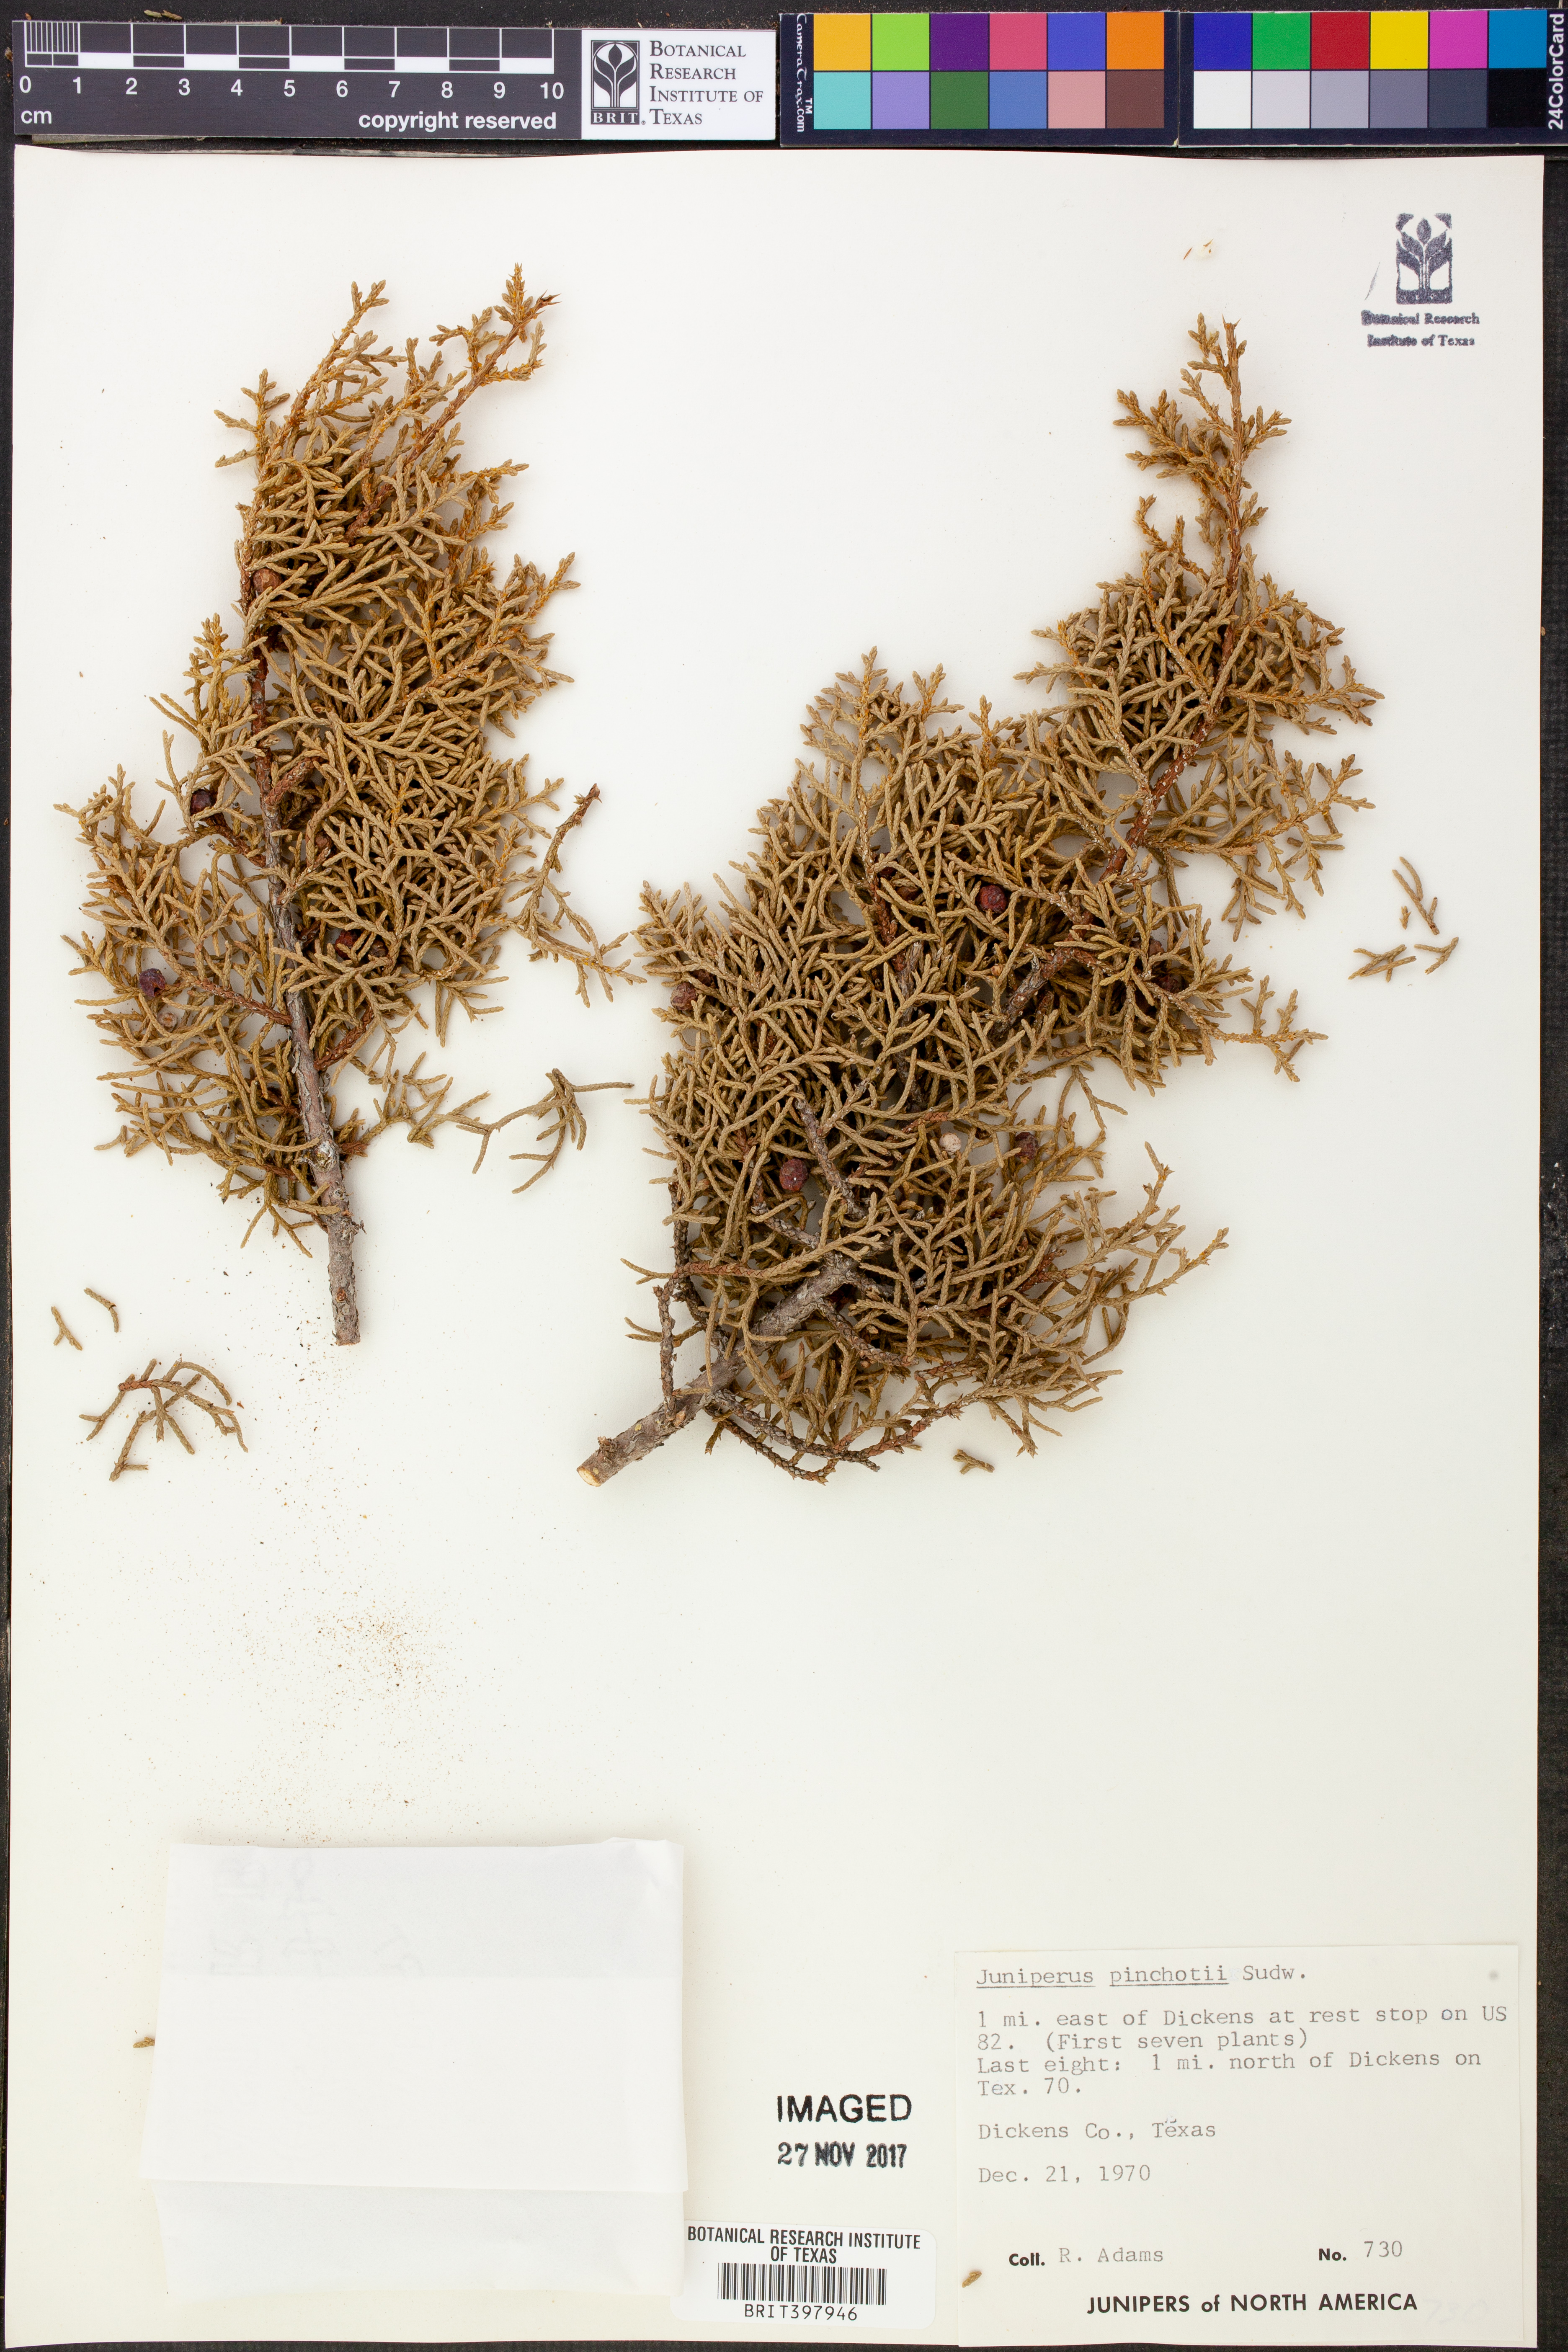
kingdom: Plantae
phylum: Tracheophyta
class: Pinopsida
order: Pinales
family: Cupressaceae
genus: Juniperus
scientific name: Juniperus pinchotii
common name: Pinchot juniper
